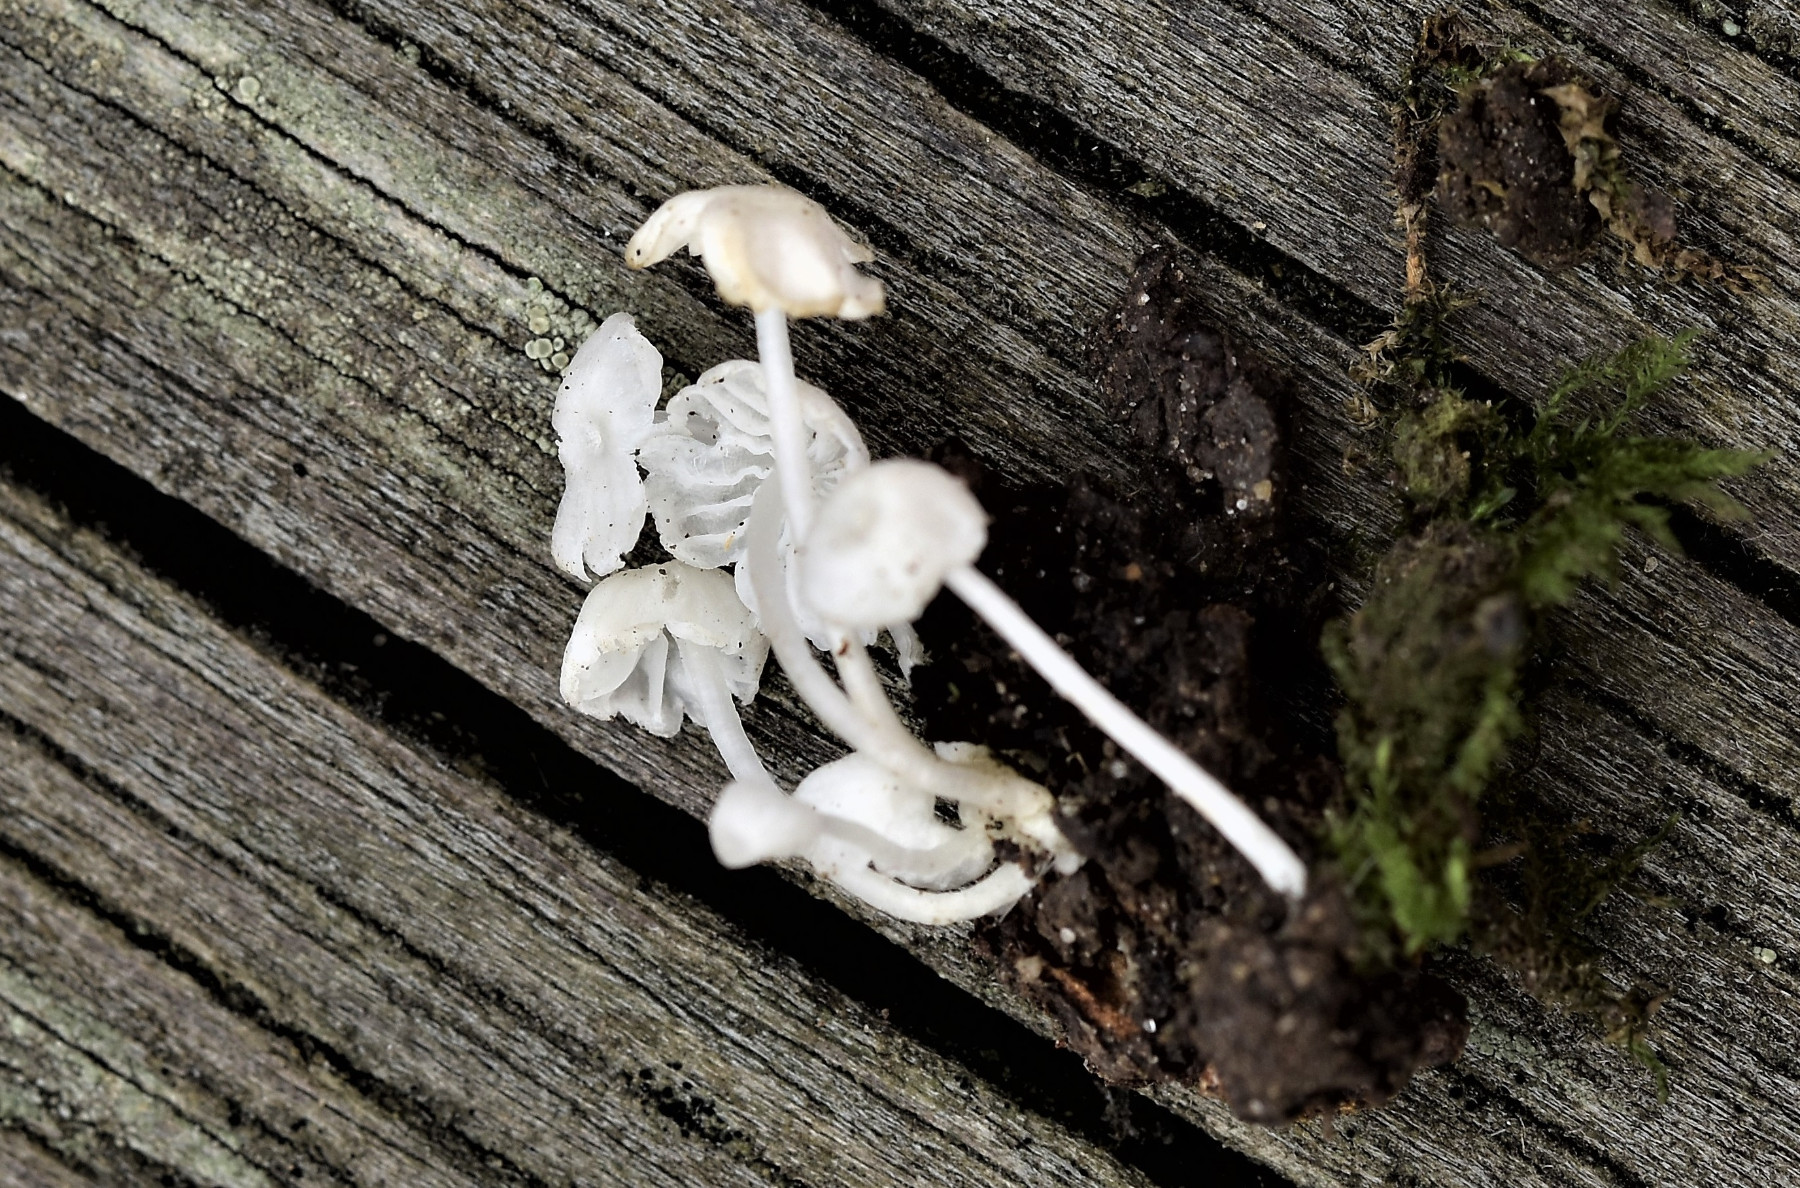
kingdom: Fungi
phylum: Basidiomycota
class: Agaricomycetes
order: Agaricales
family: Tricholomataceae
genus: Delicatula
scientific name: Delicatula integrella
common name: slørhuesvamp
